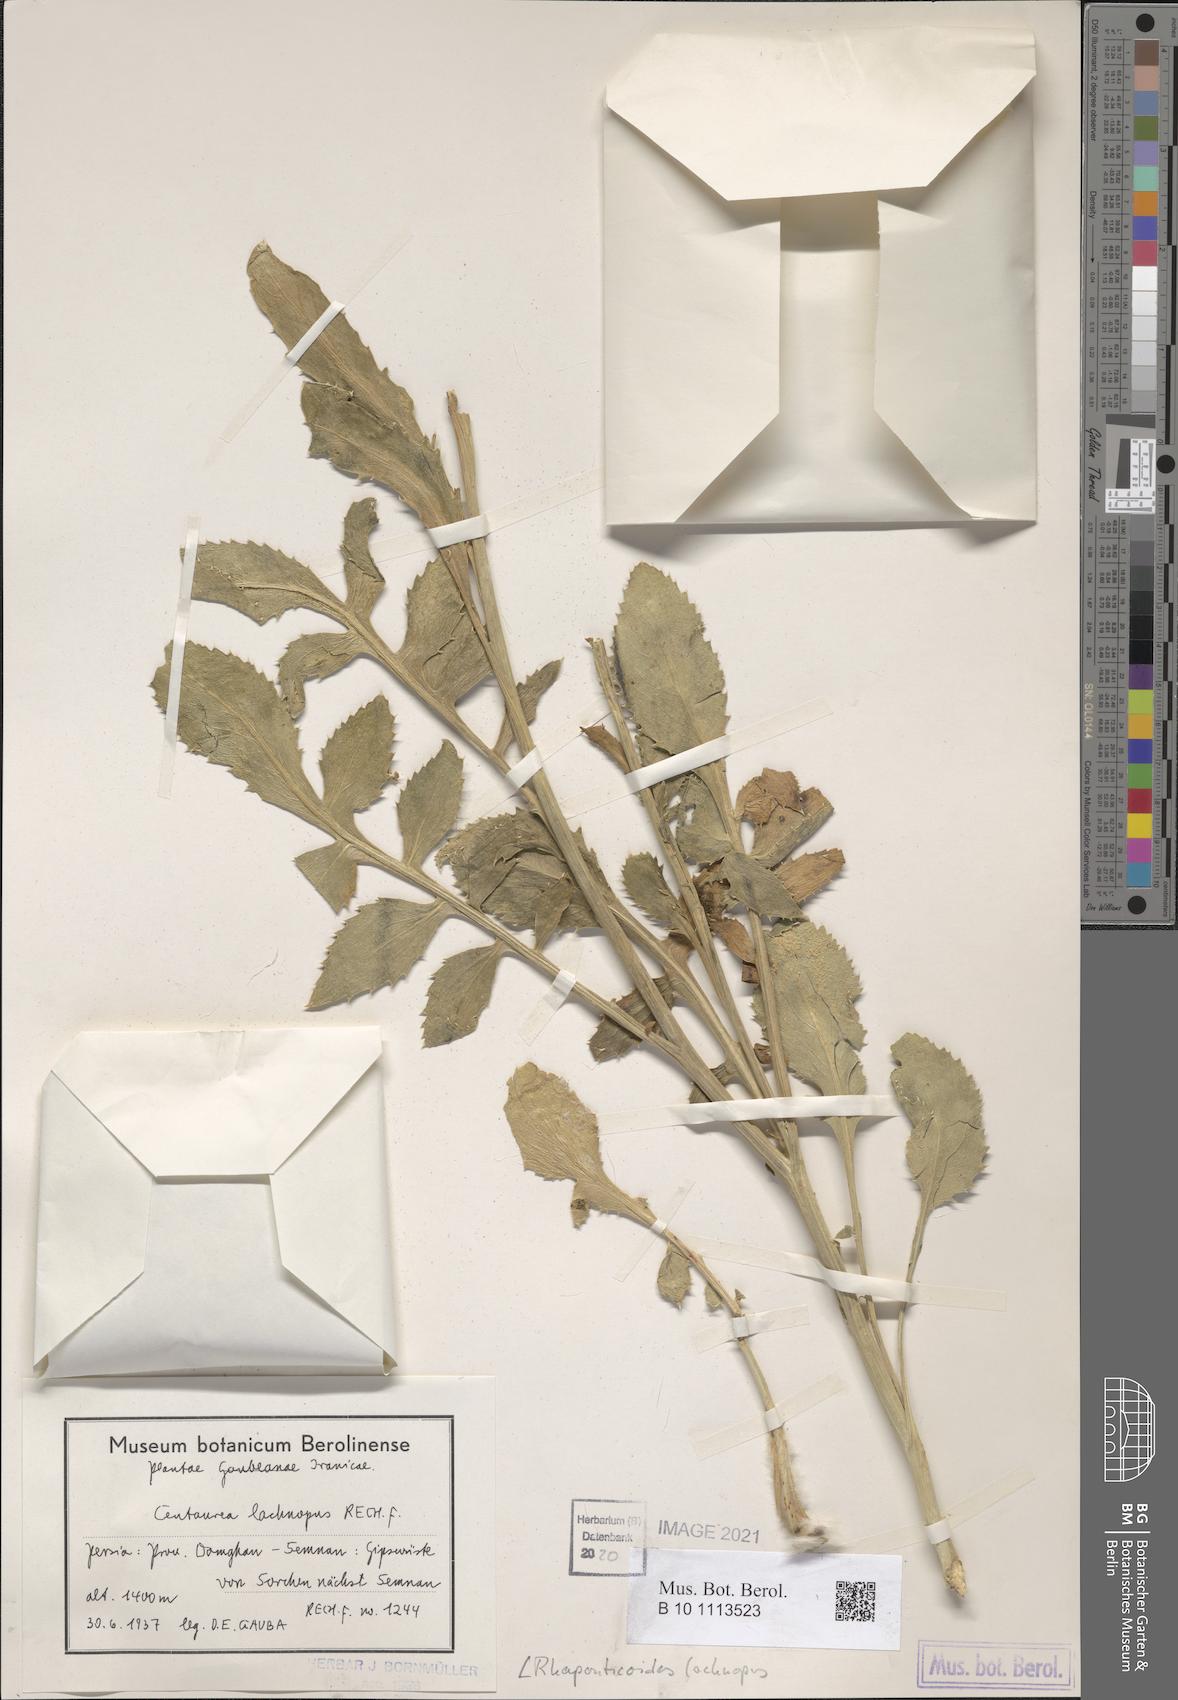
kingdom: Plantae
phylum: Tracheophyta
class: Magnoliopsida
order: Asterales
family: Asteraceae
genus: Rhaponticoides
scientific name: Rhaponticoides lachnopus
